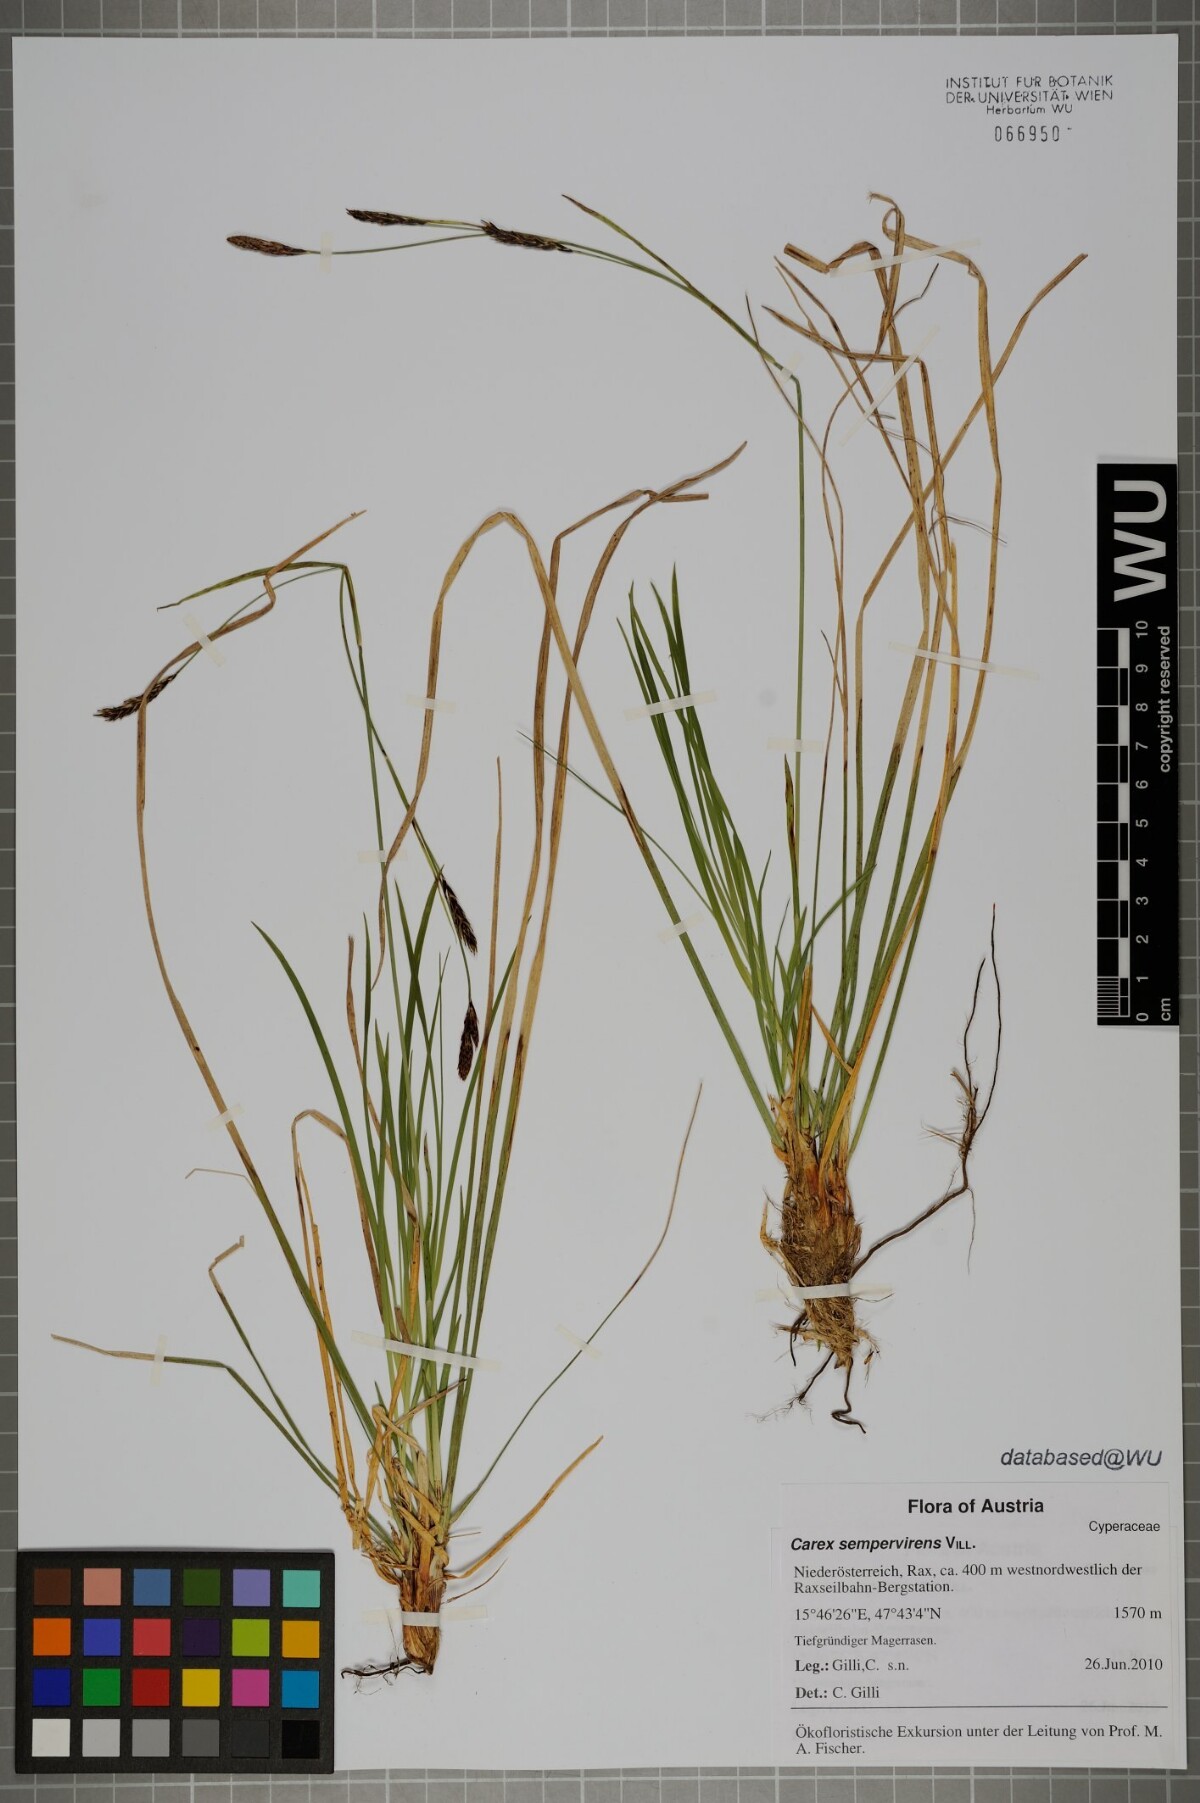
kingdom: Plantae
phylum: Tracheophyta
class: Liliopsida
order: Poales
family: Cyperaceae
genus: Carex
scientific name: Carex sempervirens
